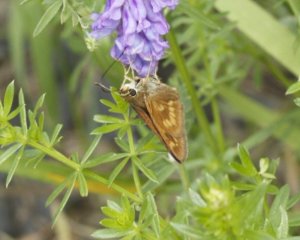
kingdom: Animalia
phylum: Arthropoda
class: Insecta
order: Lepidoptera
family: Hesperiidae
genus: Polites
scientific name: Polites
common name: Long Dash Skipper
